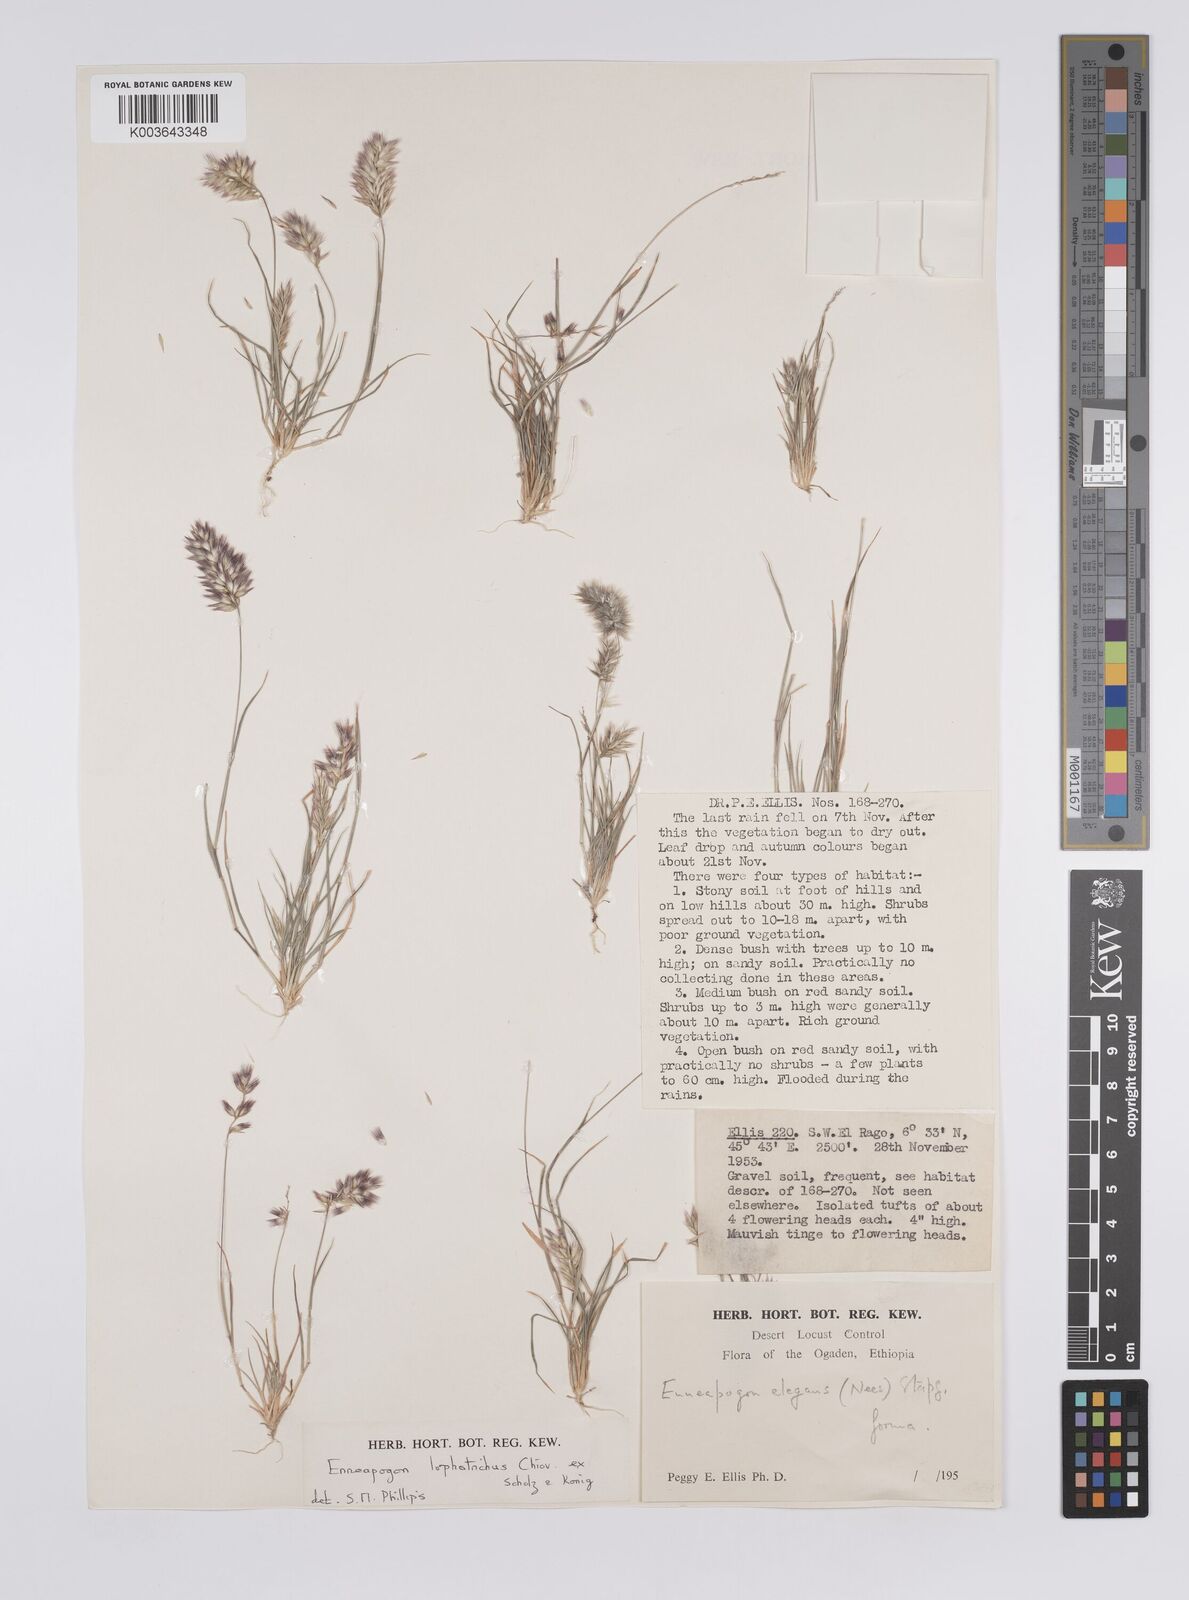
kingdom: Plantae
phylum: Tracheophyta
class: Liliopsida
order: Poales
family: Poaceae
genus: Enneapogon
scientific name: Enneapogon lophotrichus
